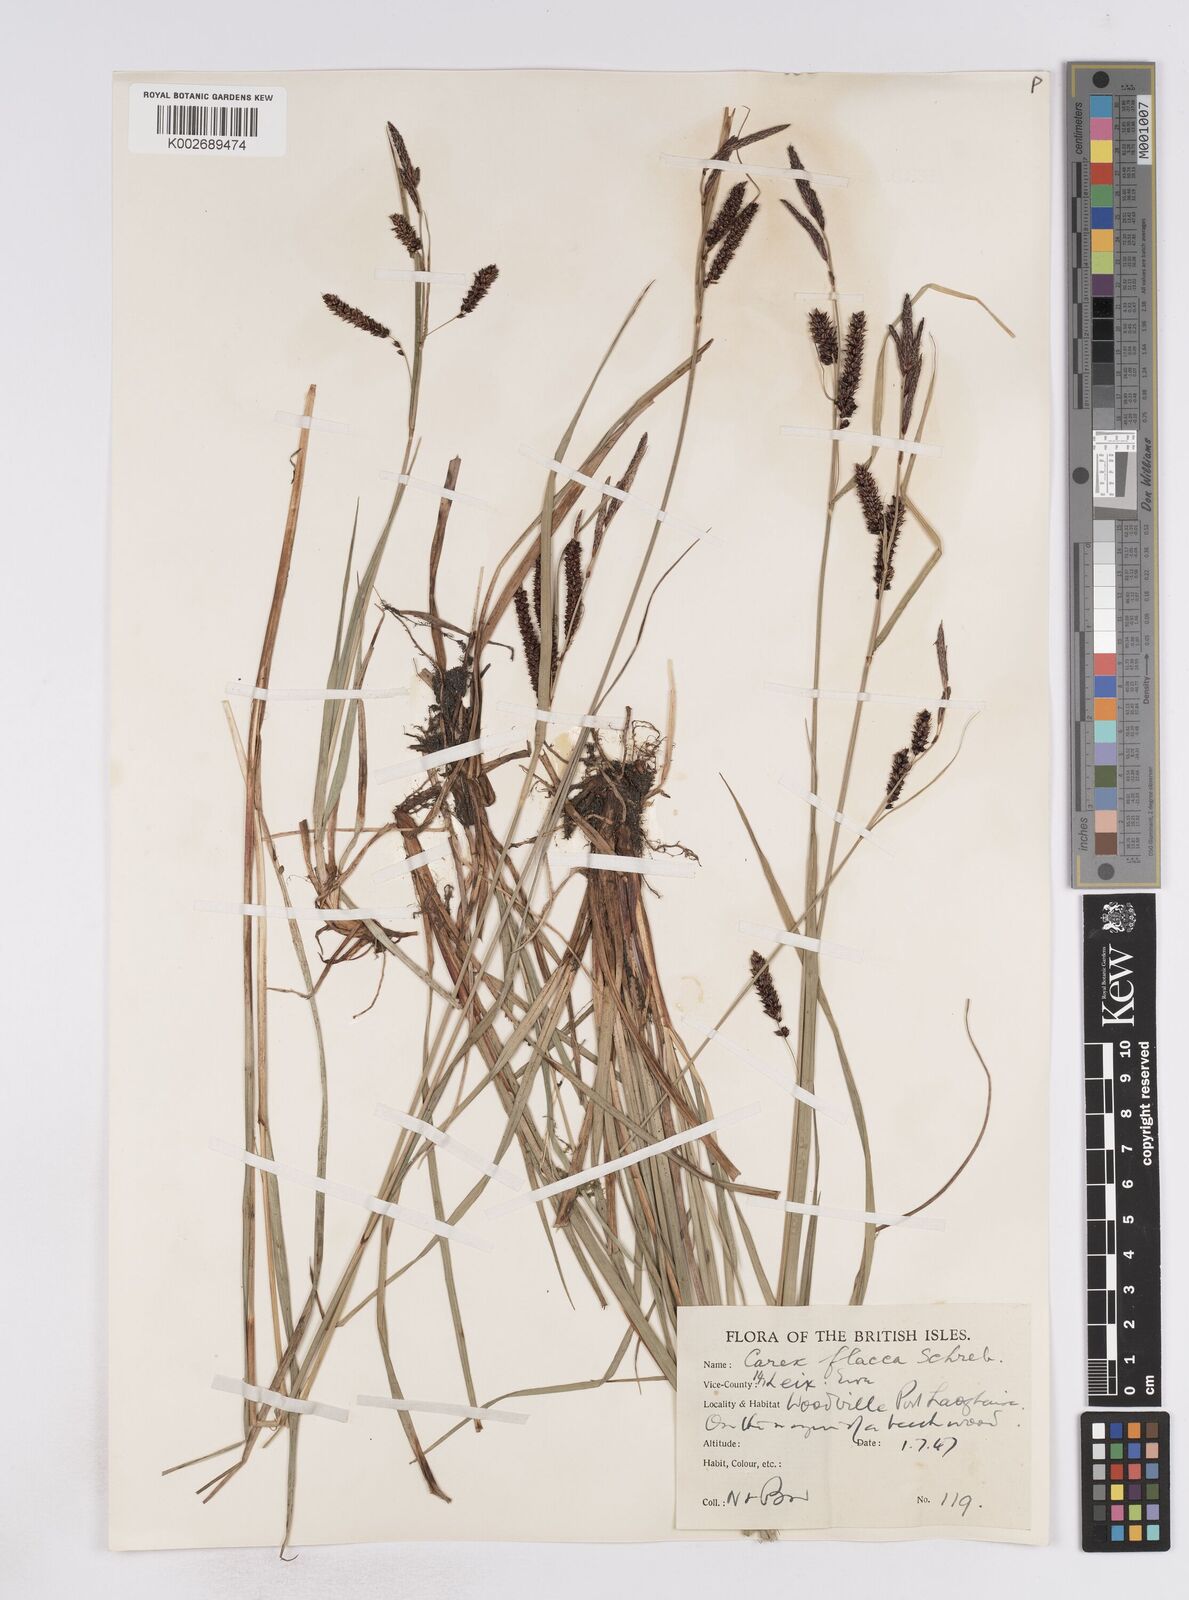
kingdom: Plantae
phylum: Tracheophyta
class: Liliopsida
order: Poales
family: Cyperaceae
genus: Carex
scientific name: Carex flacca
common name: Glaucous sedge
